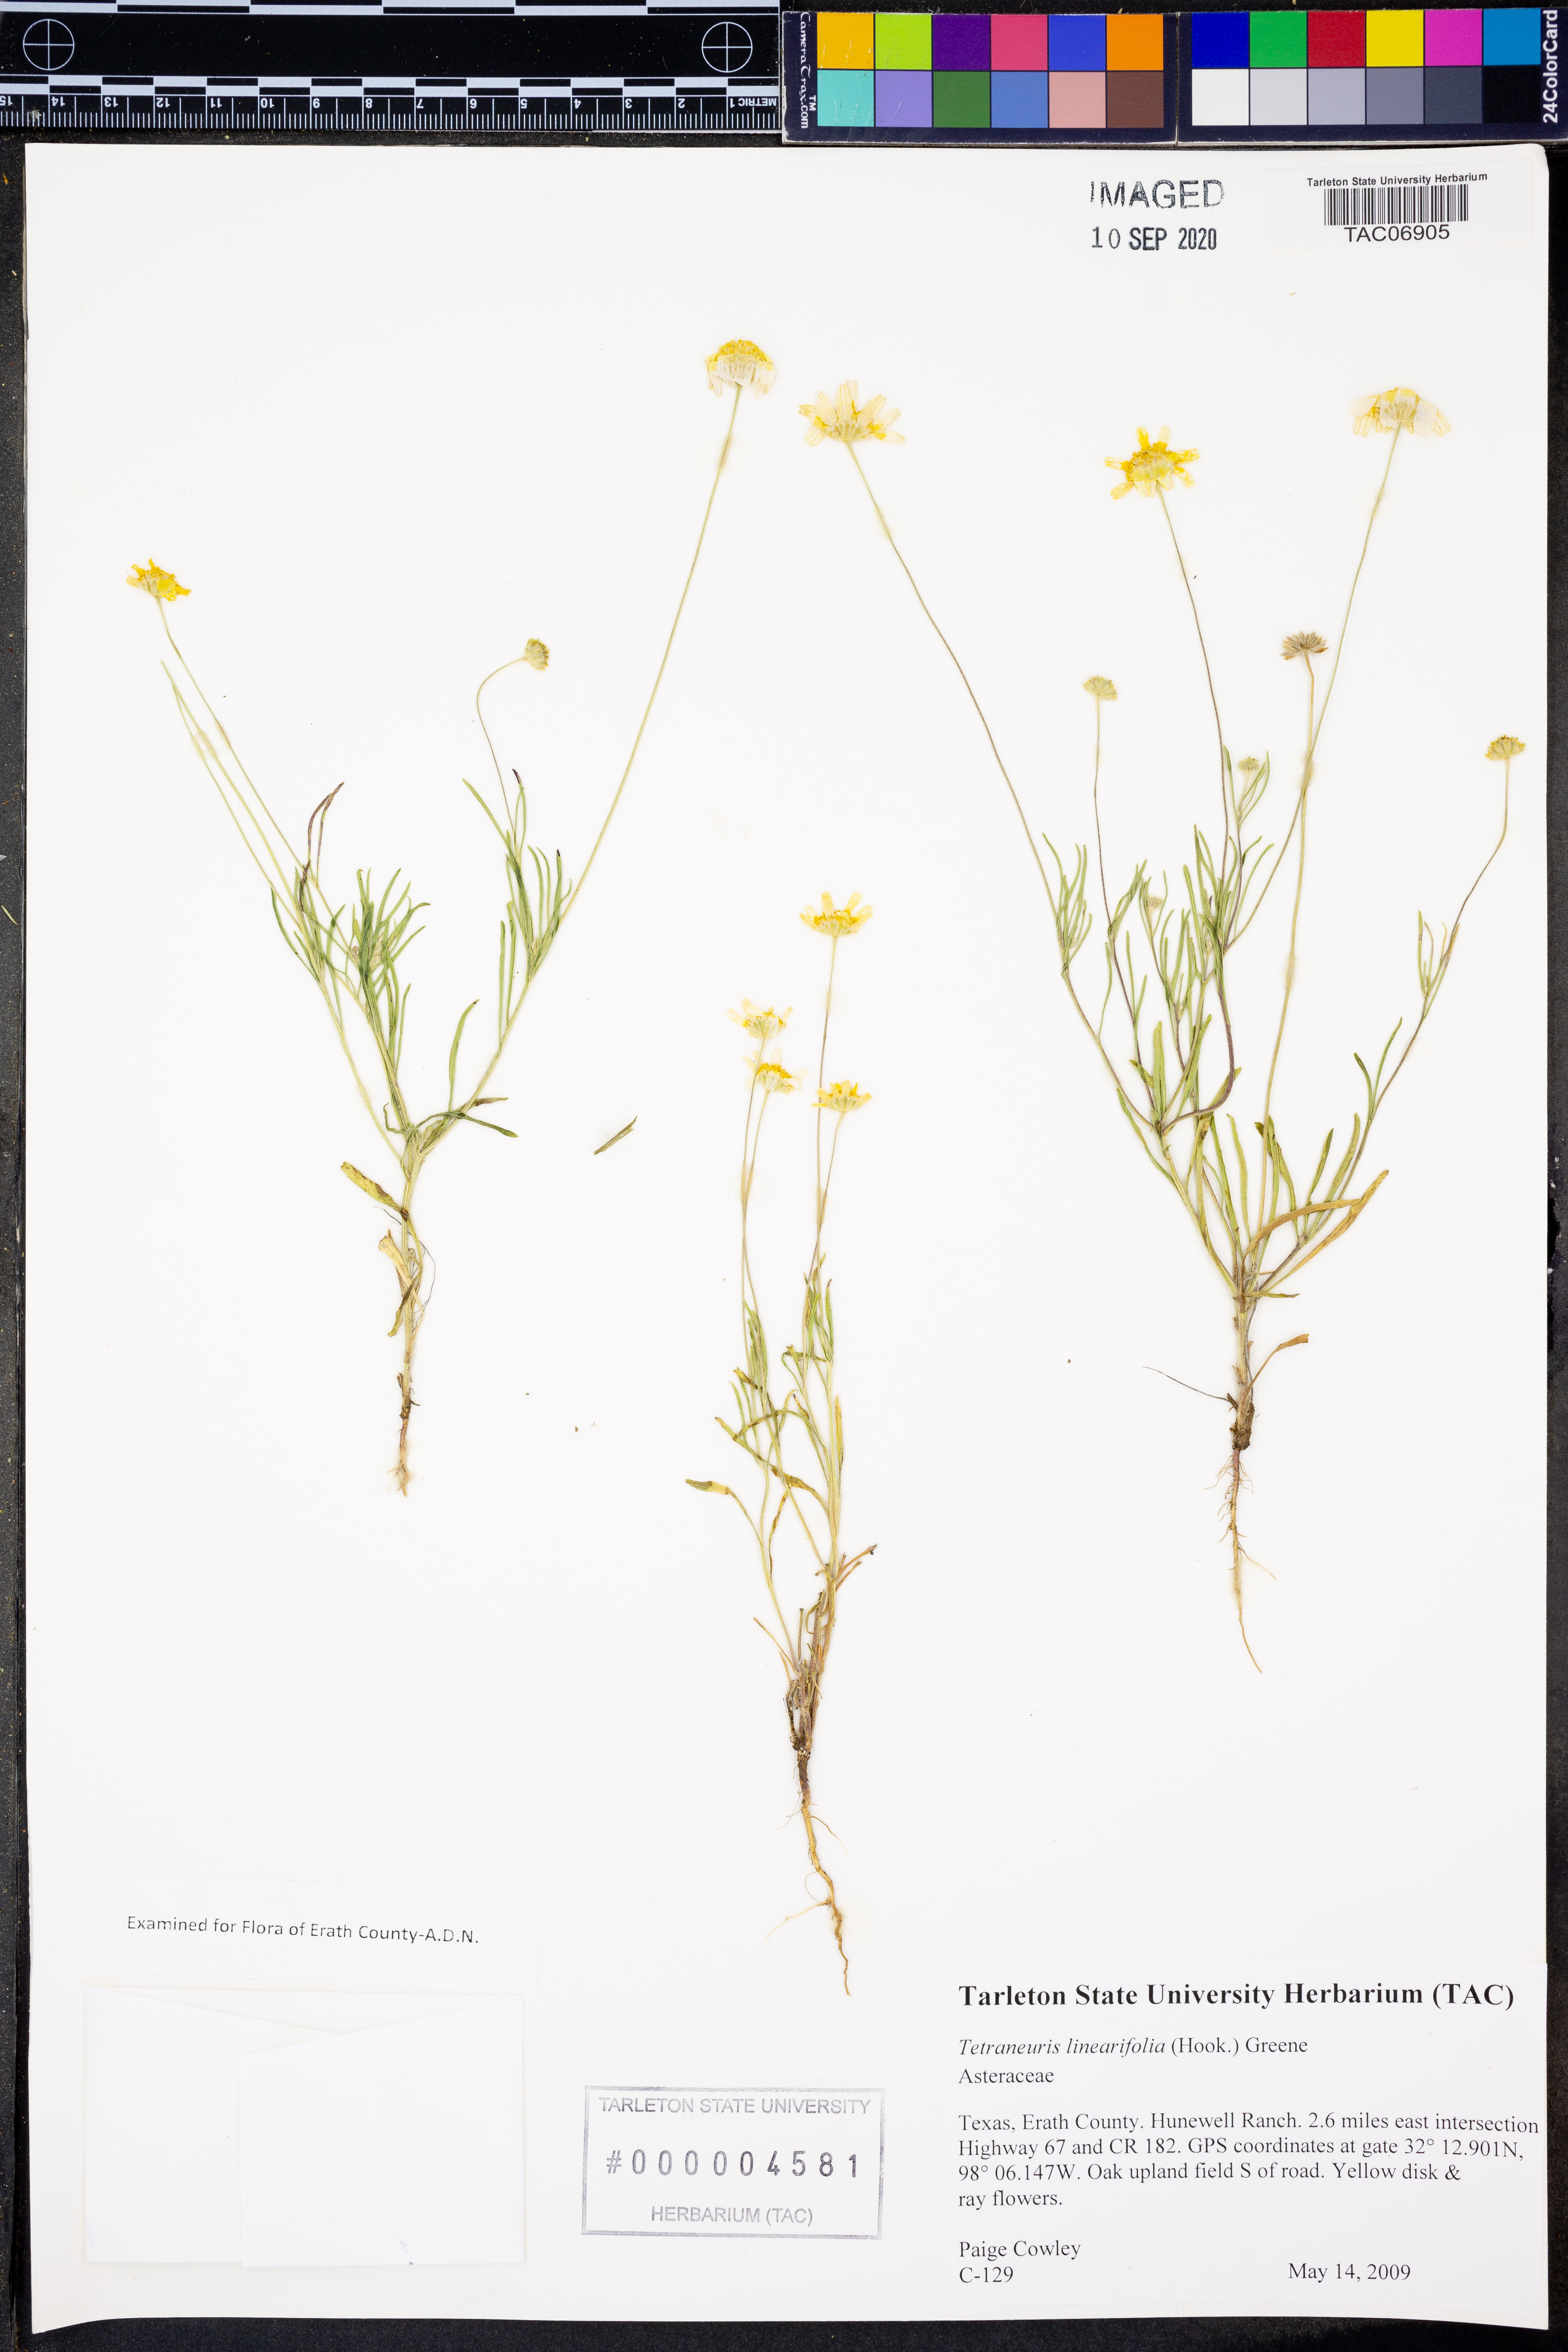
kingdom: Plantae
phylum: Tracheophyta
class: Magnoliopsida
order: Asterales
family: Asteraceae
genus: Tetraneuris
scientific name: Tetraneuris linearifolia
